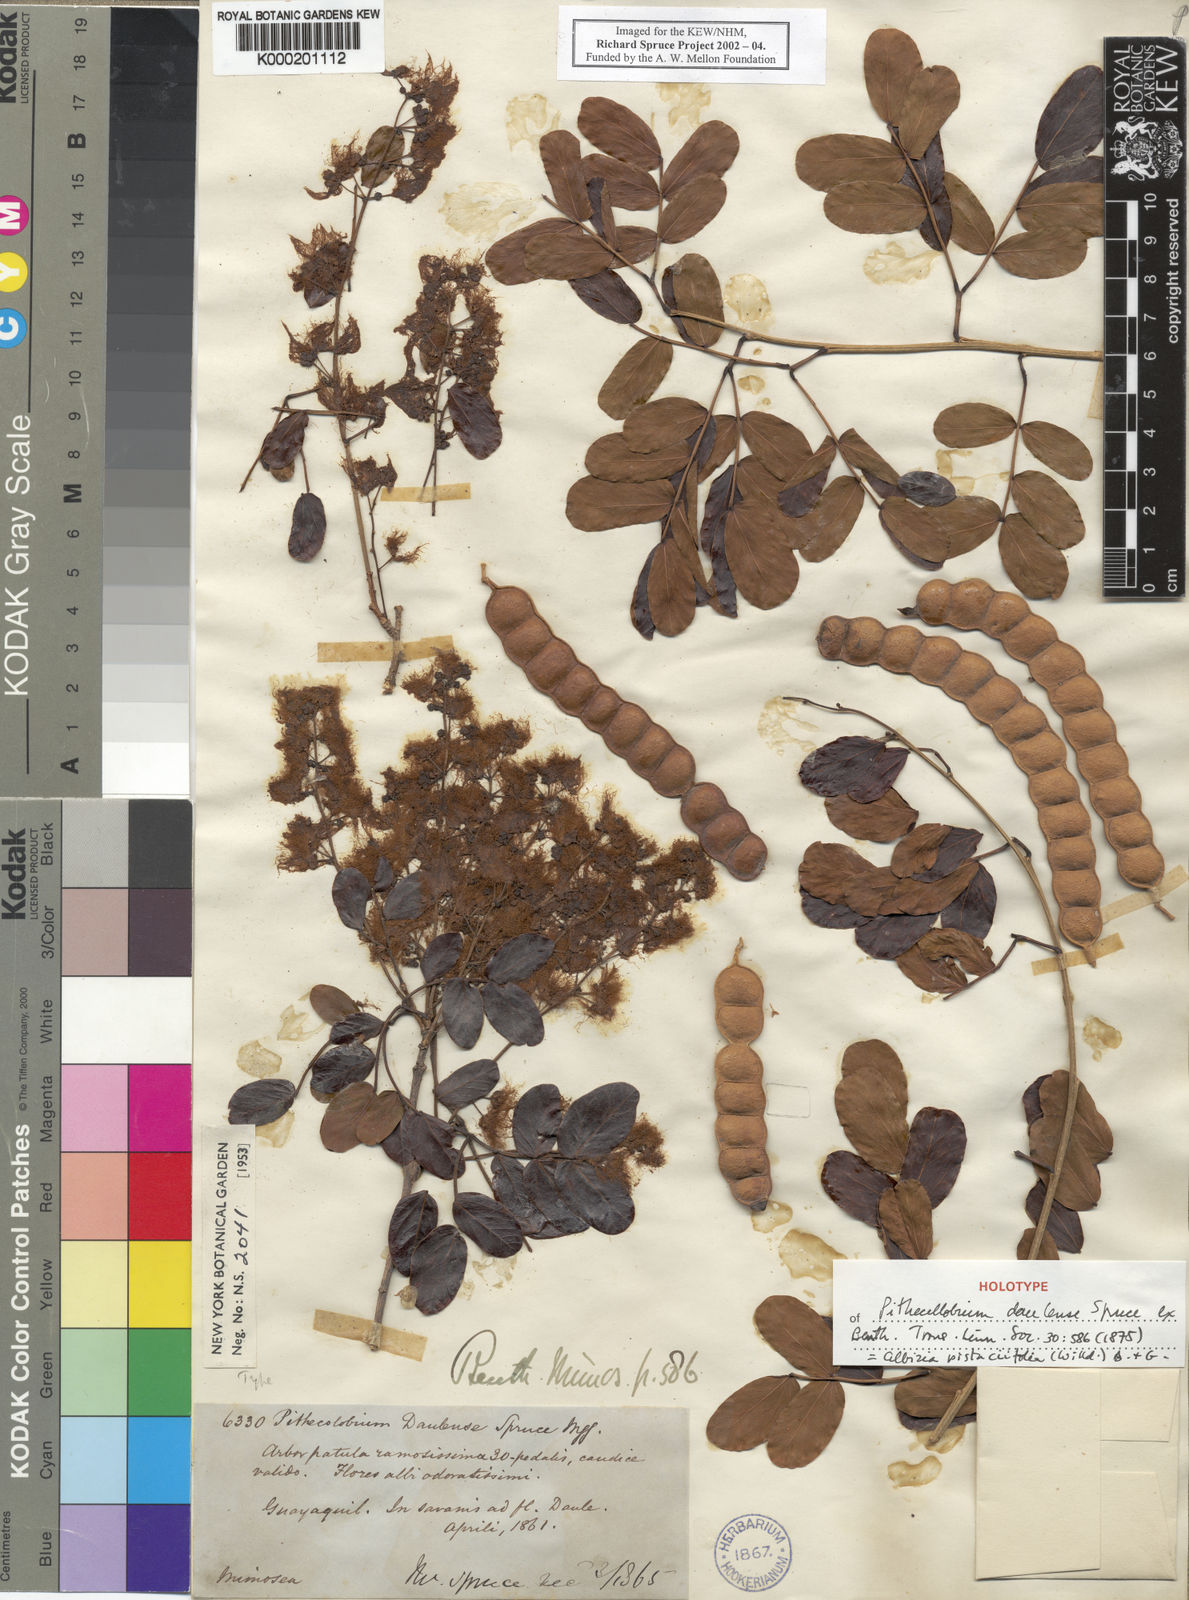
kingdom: Plantae
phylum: Tracheophyta
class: Magnoliopsida
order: Fabales
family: Fabaceae
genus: Albizia
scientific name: Albizia pistaciifolia
